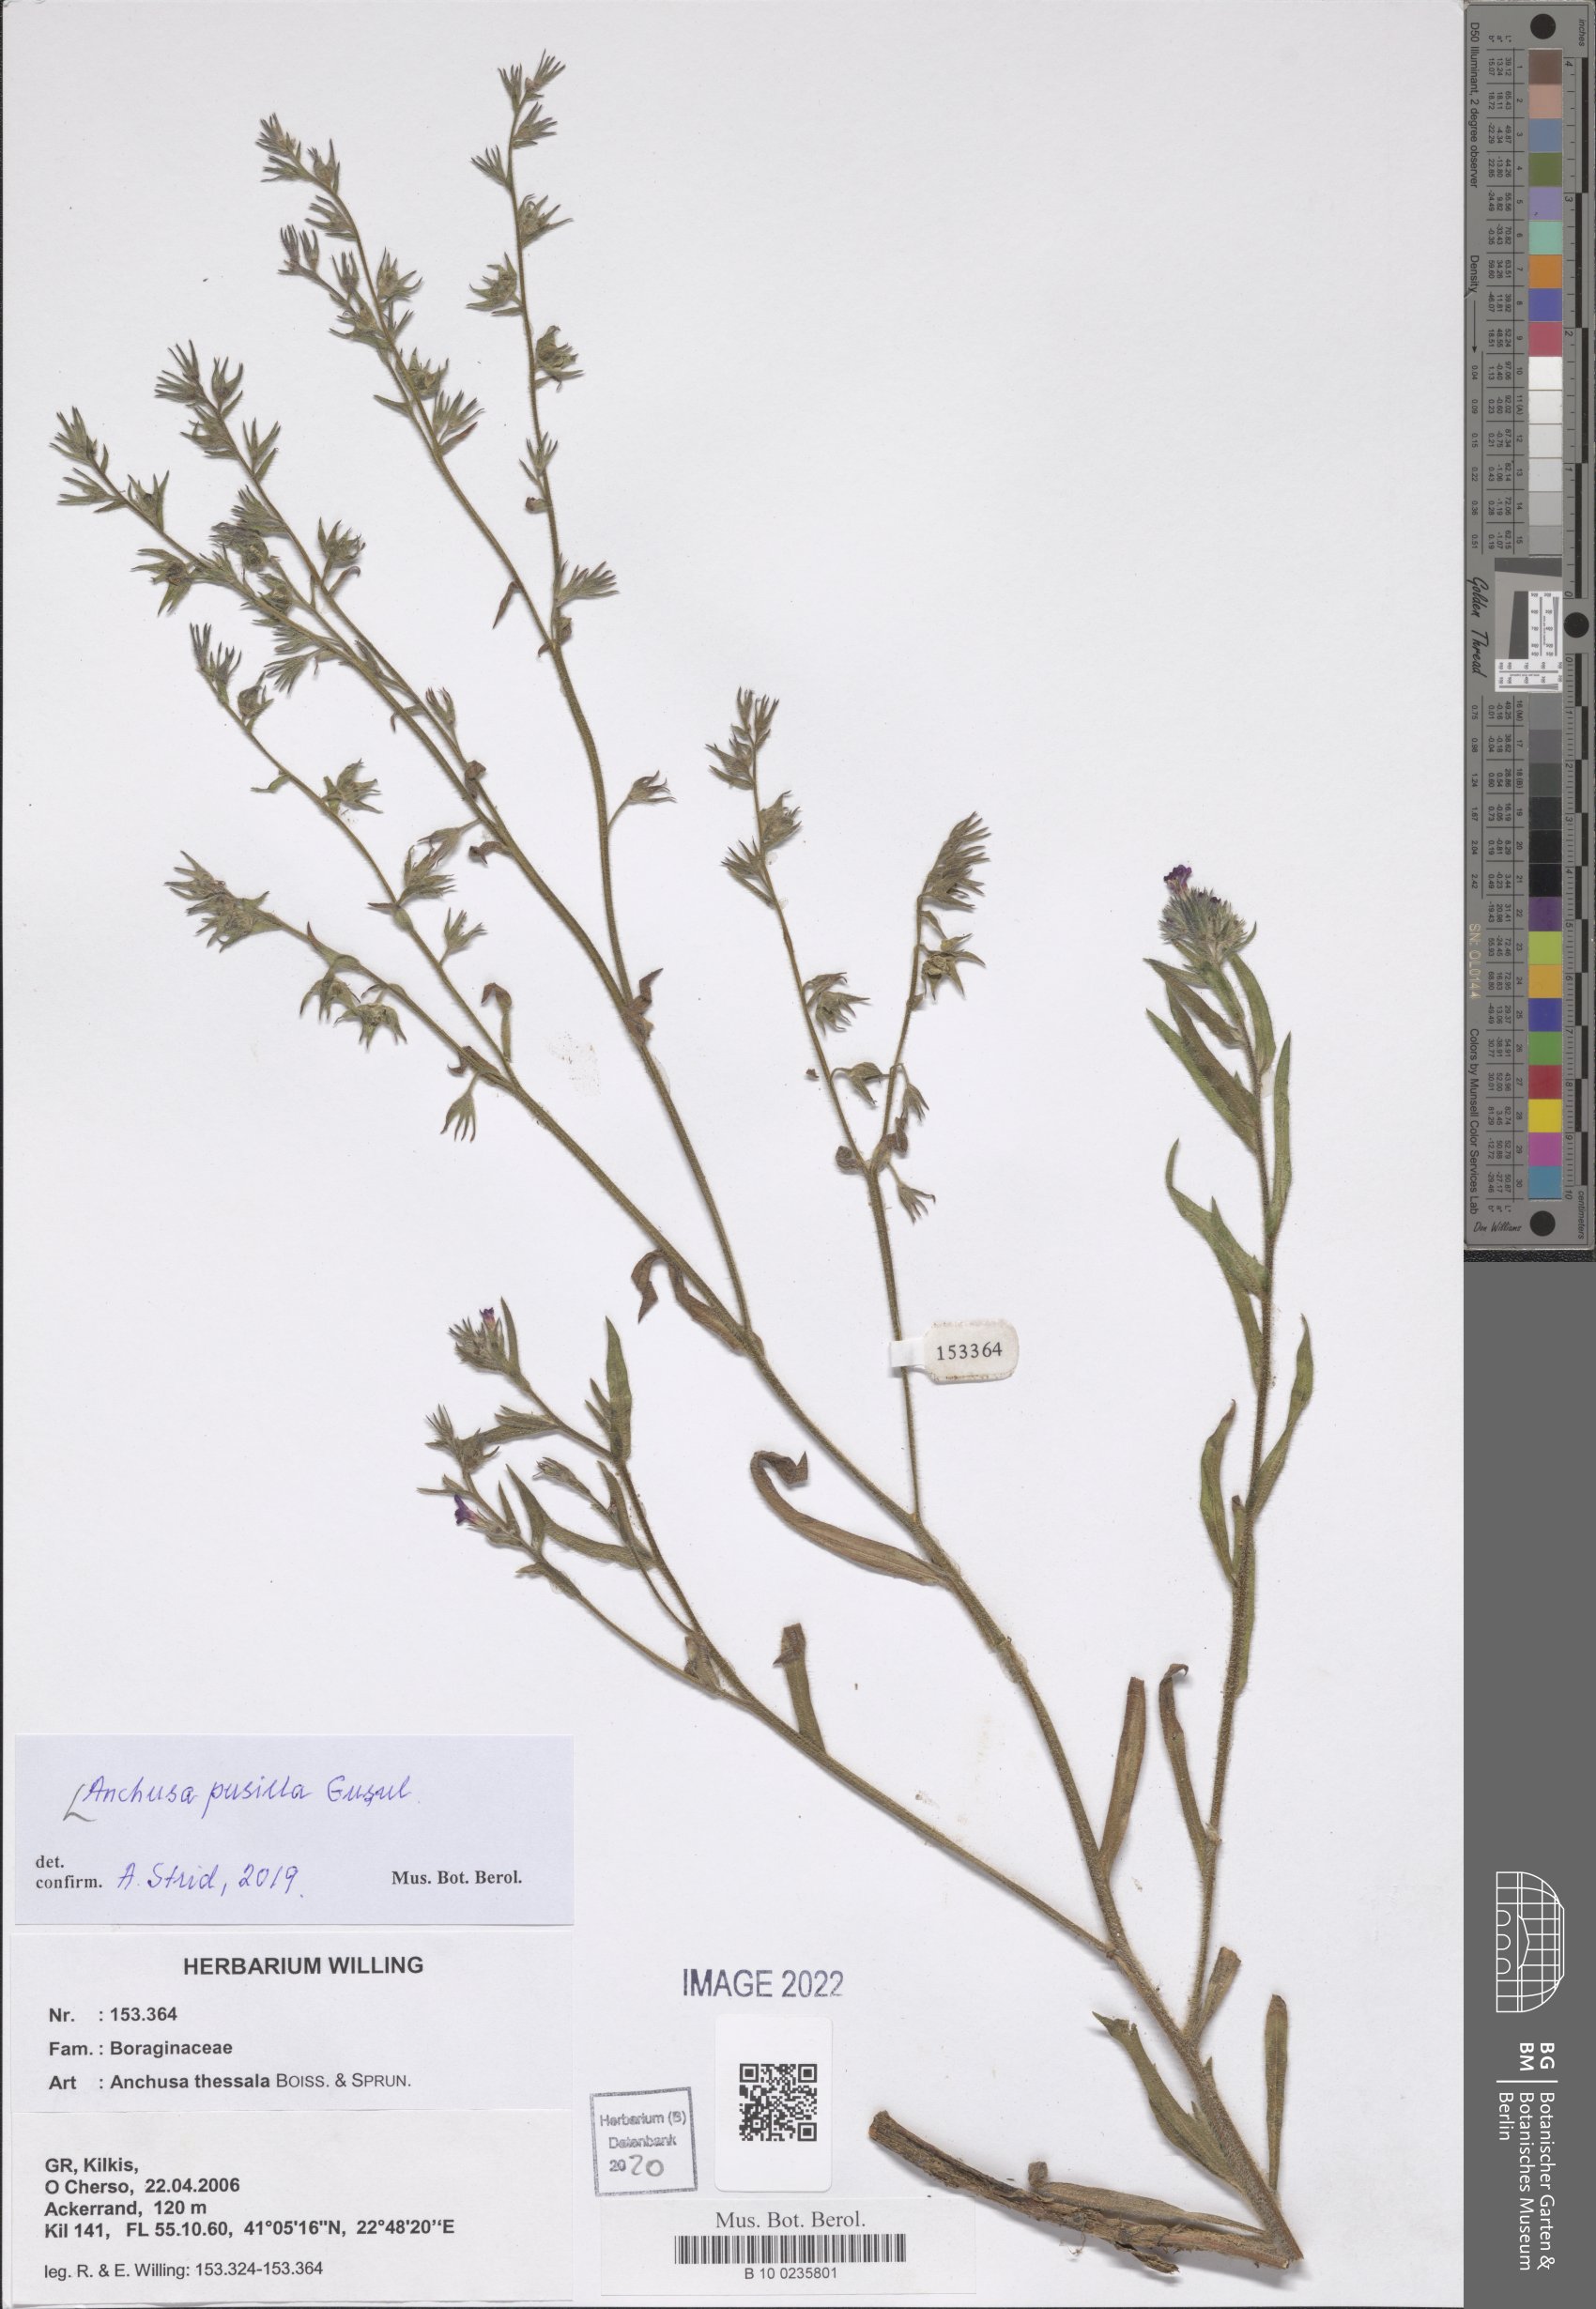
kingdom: Plantae
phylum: Tracheophyta
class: Magnoliopsida
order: Boraginales
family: Boraginaceae
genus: Anchusa
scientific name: Anchusa pusilla
